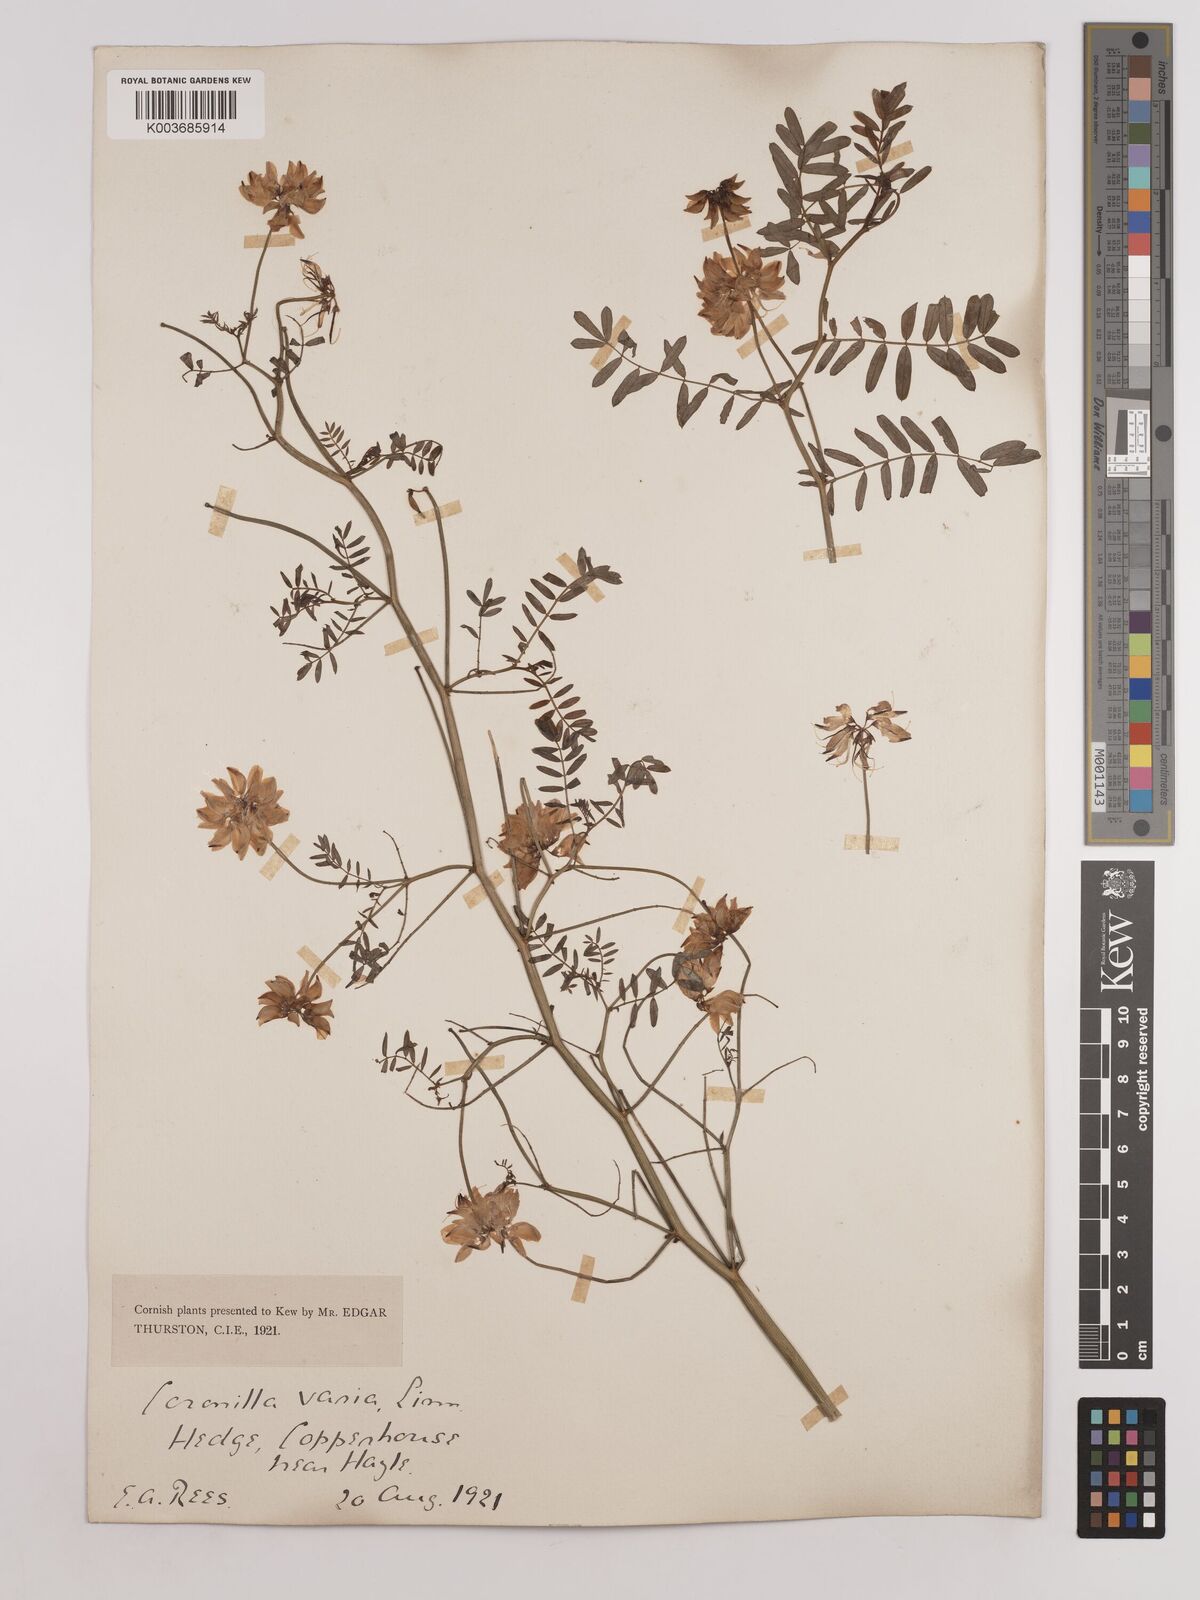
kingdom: Plantae
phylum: Tracheophyta
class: Magnoliopsida
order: Fabales
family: Fabaceae
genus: Coronilla
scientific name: Coronilla varia
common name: Crownvetch
